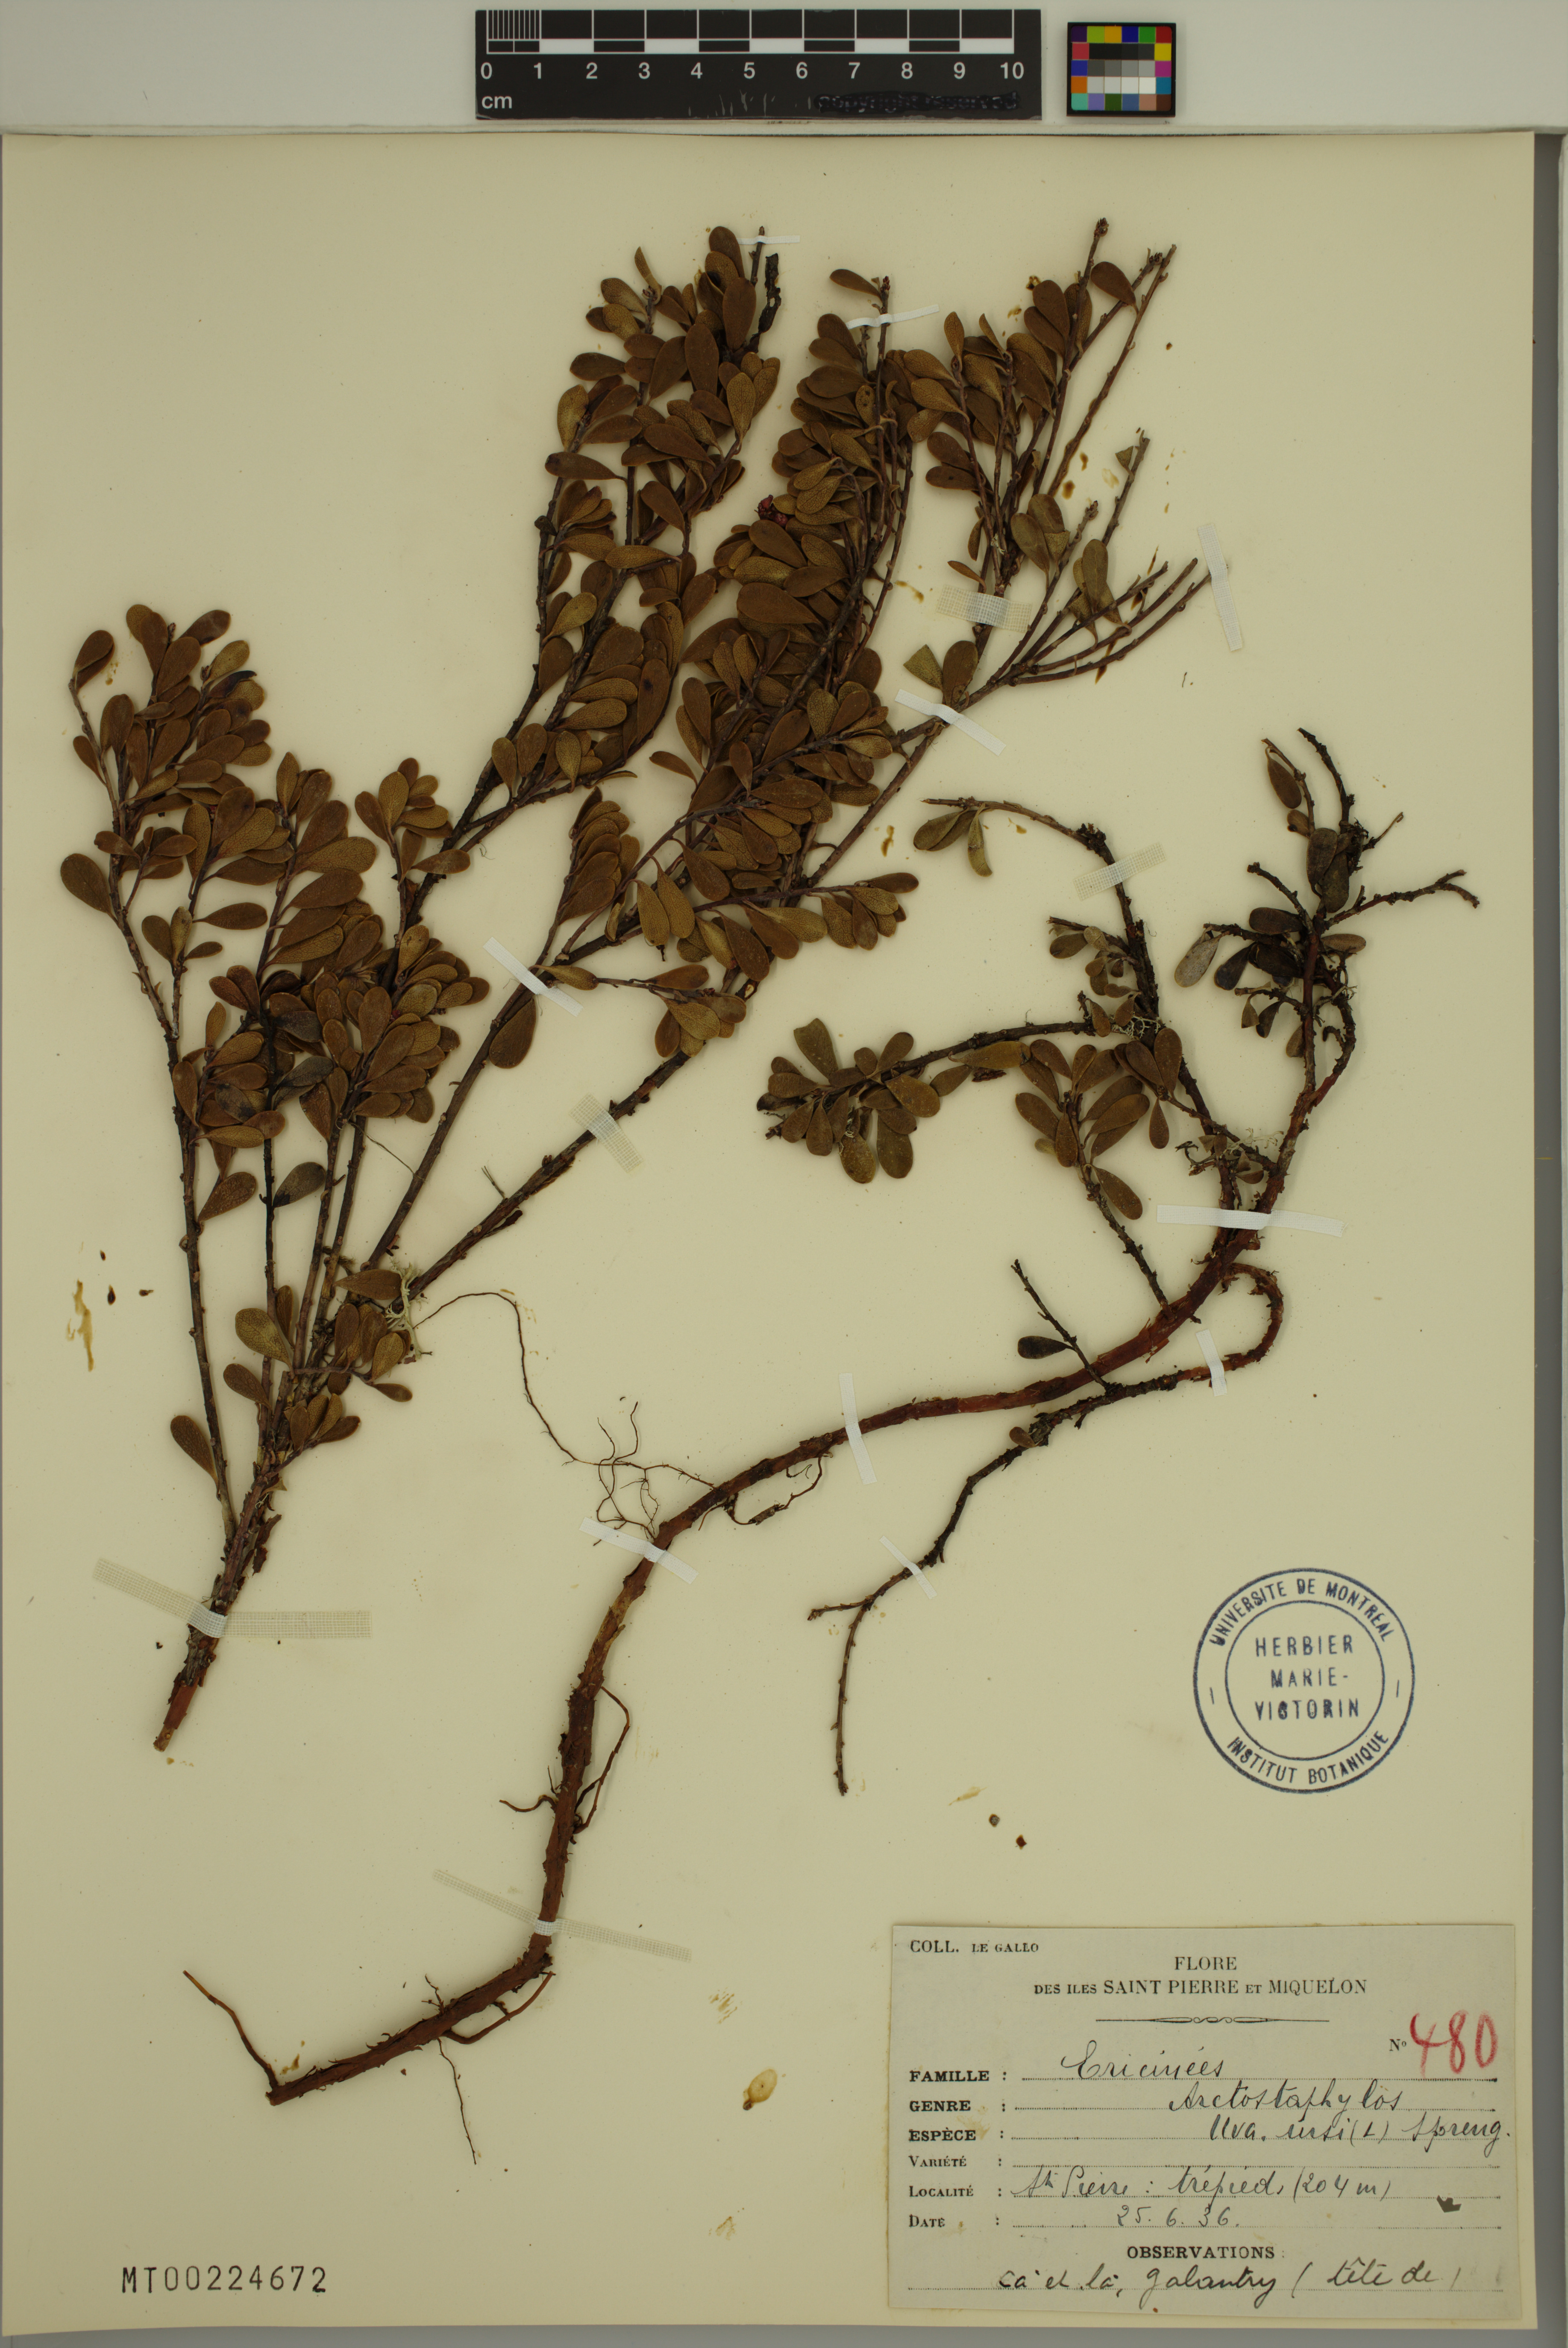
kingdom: Plantae
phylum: Tracheophyta
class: Magnoliopsida
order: Ericales
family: Ericaceae
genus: Arctostaphylos
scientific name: Arctostaphylos uva-ursi
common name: Bearberry
